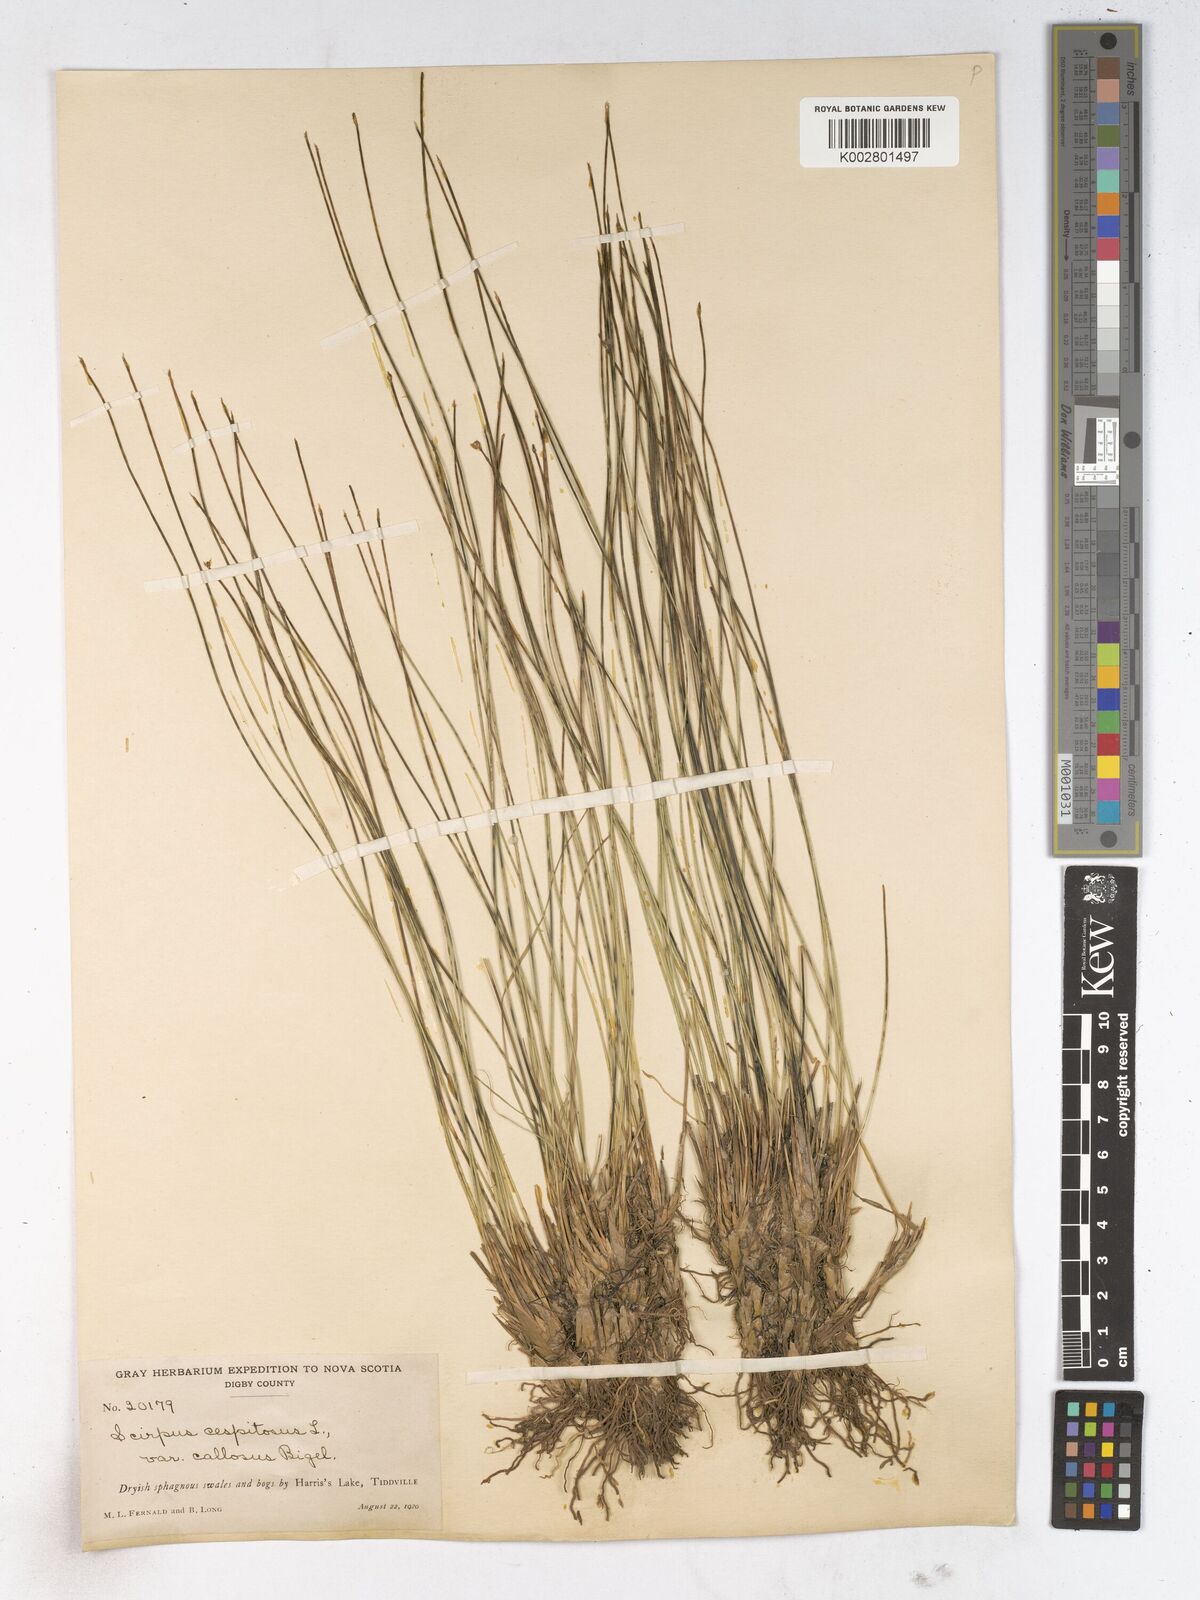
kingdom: Plantae
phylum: Tracheophyta
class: Liliopsida
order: Poales
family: Cyperaceae
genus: Trichophorum
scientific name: Trichophorum cespitosum
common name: Cespitose bulrush
